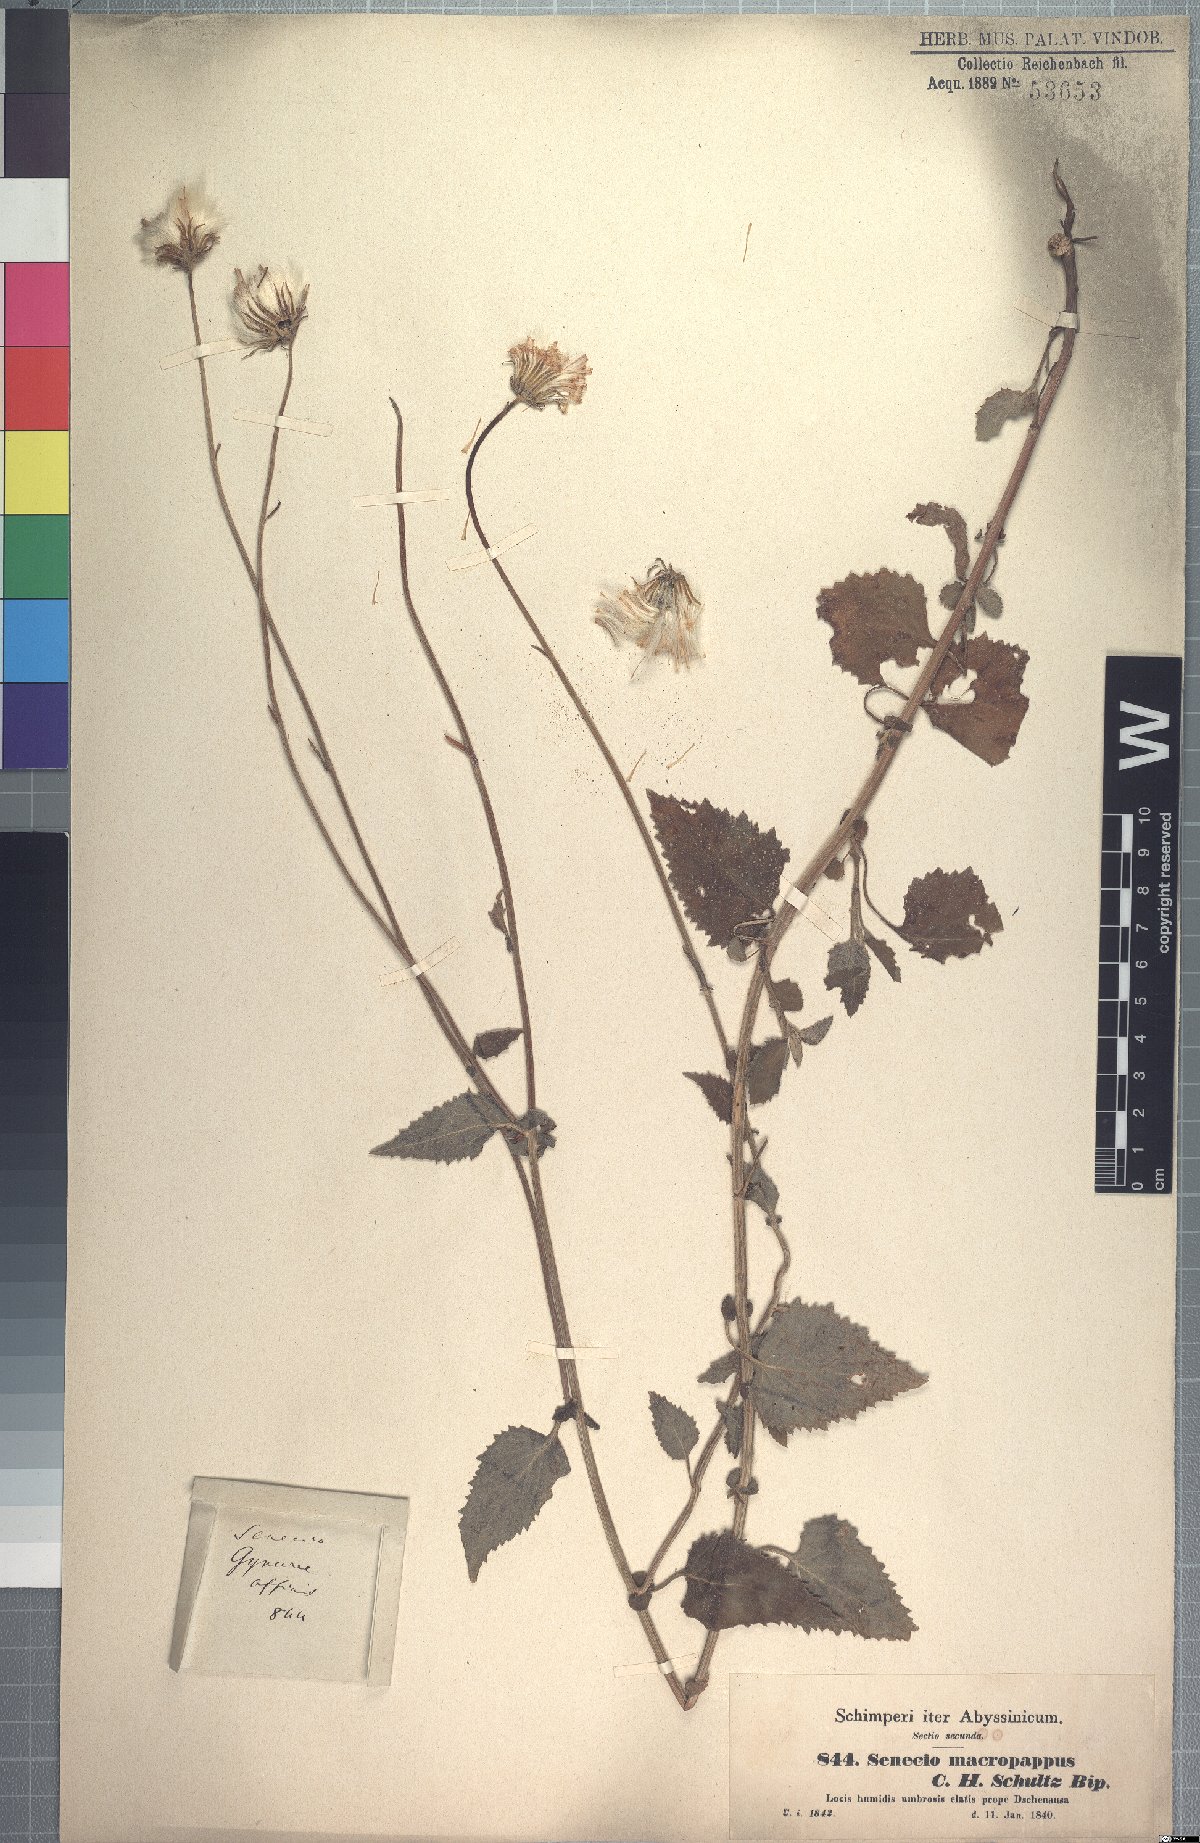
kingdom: Plantae
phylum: Tracheophyta
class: Magnoliopsida
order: Asterales
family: Asteraceae
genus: Crassocephalum
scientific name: Crassocephalum macropappus
